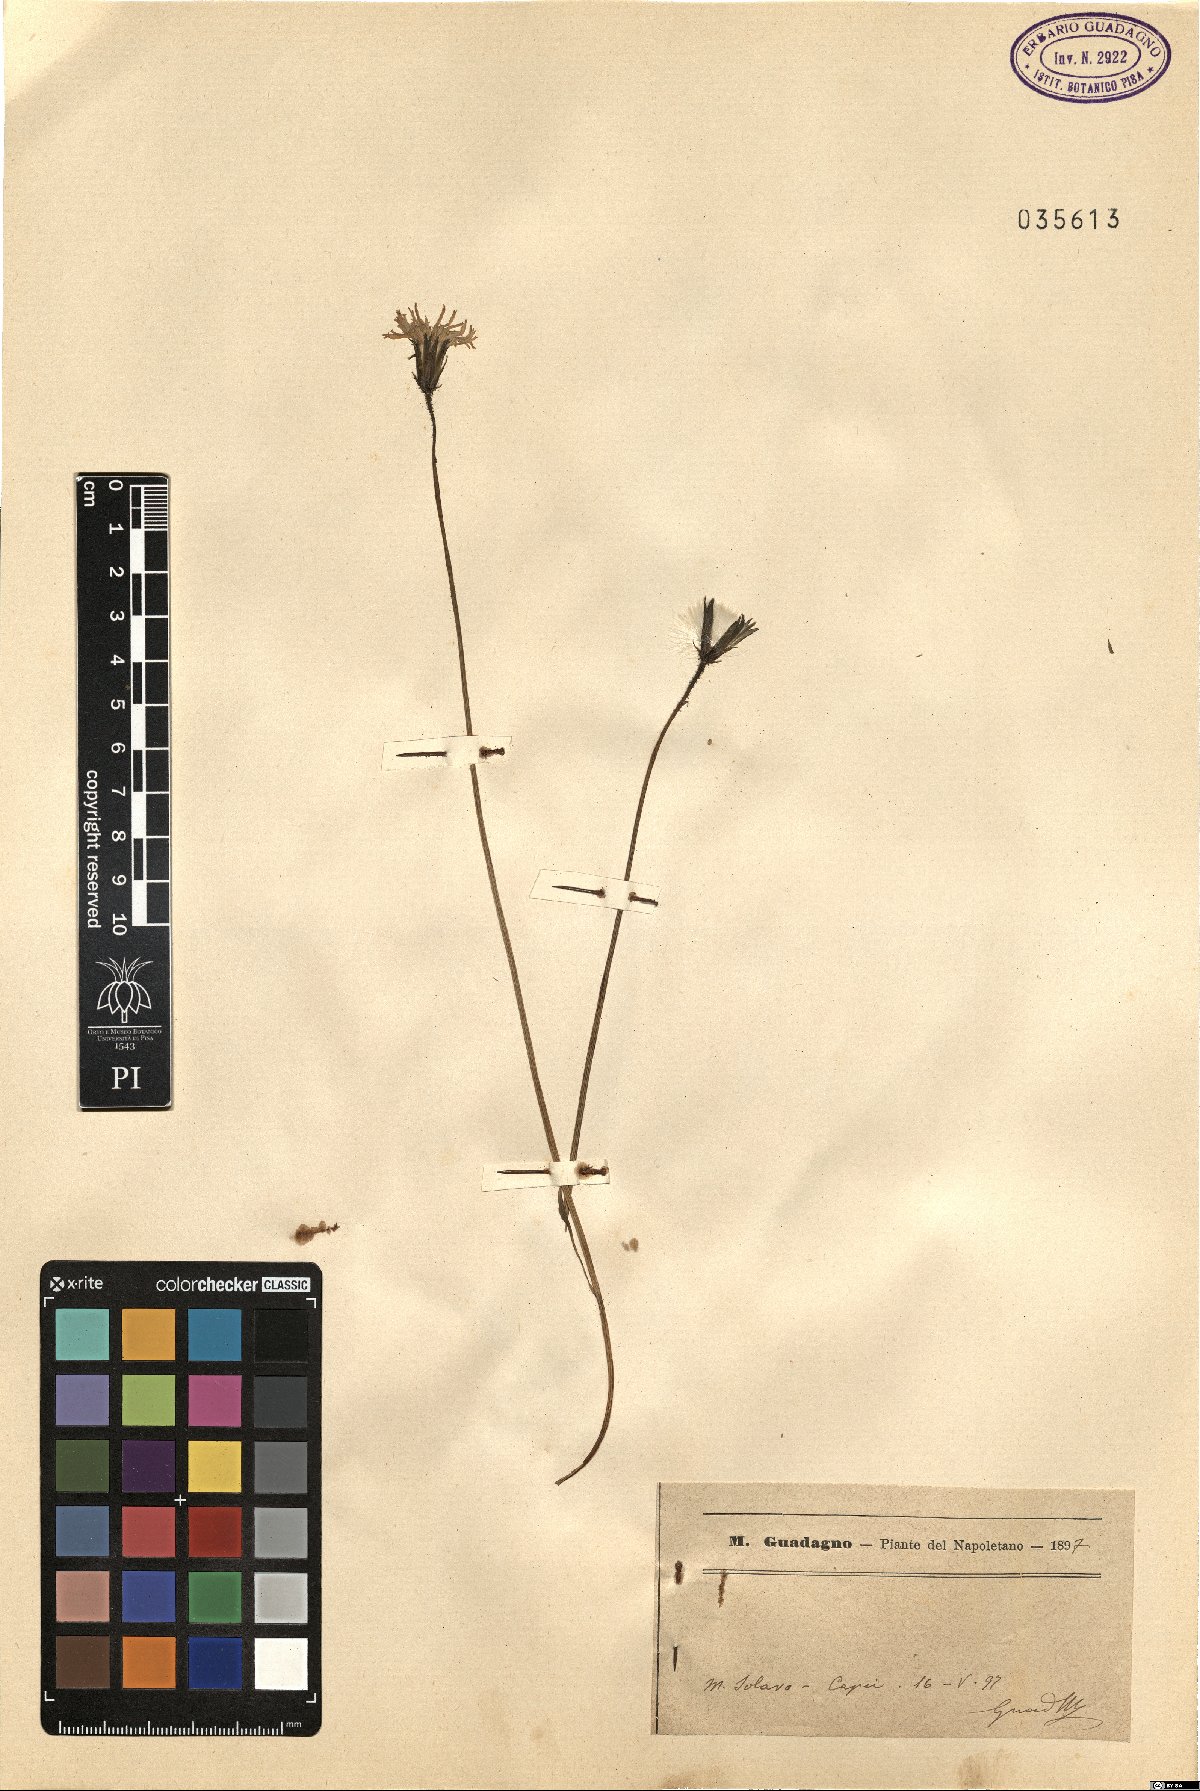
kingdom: Plantae
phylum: Tracheophyta
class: Magnoliopsida
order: Asterales
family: Asteraceae
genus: Crepis
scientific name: Crepis
